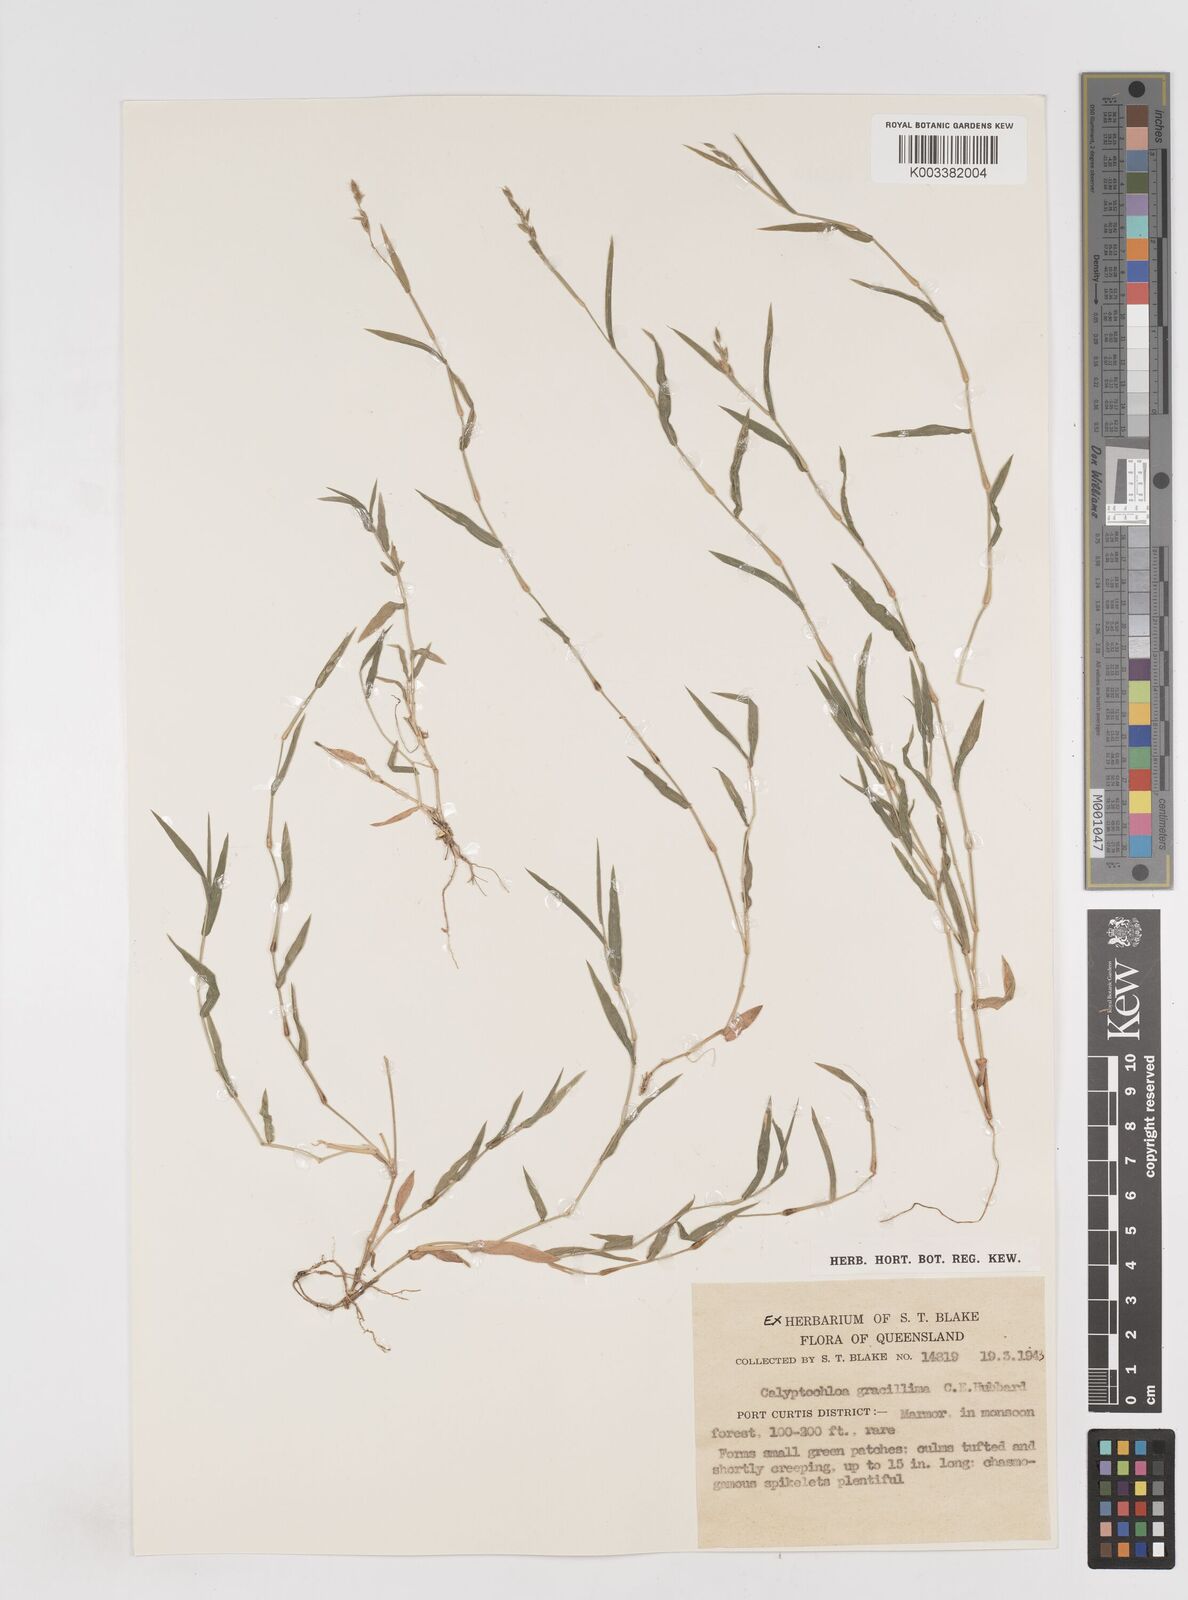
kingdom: Plantae
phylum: Tracheophyta
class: Liliopsida
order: Poales
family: Poaceae
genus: Calyptochloa
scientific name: Calyptochloa gracillima
